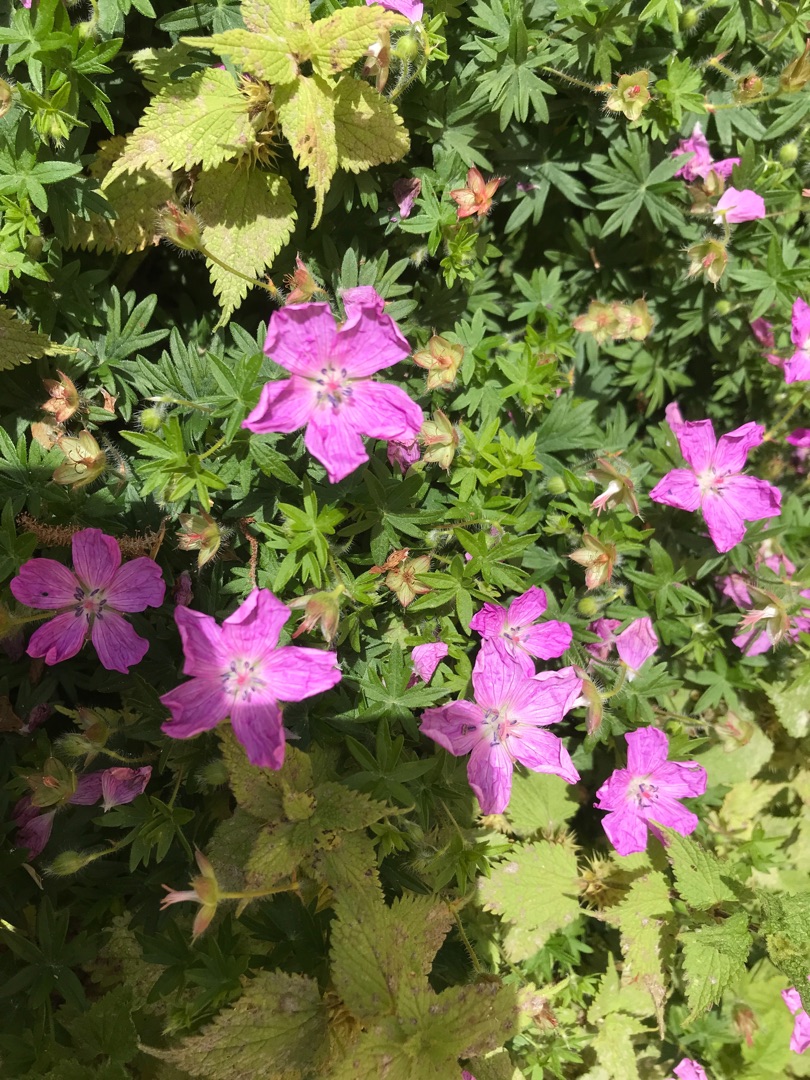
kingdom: Plantae
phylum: Tracheophyta
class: Magnoliopsida
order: Geraniales
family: Geraniaceae
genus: Geranium
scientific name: Geranium sanguineum
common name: Blodrød storkenæb
